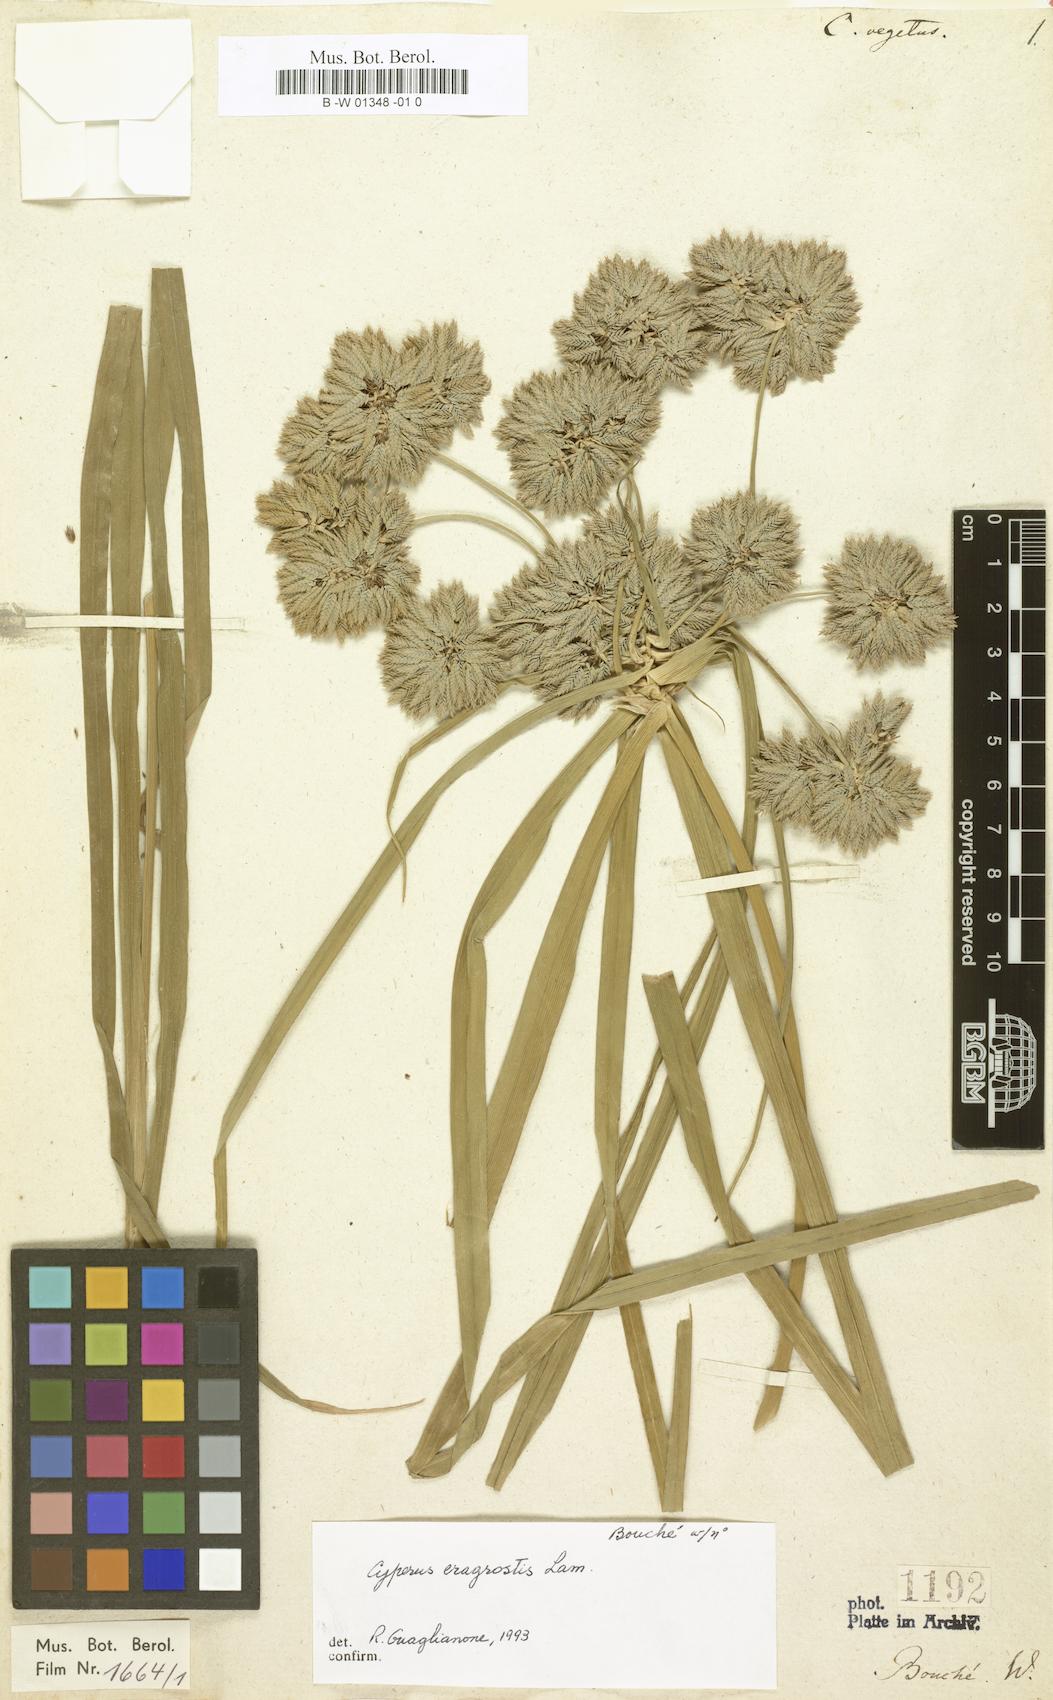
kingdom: Plantae
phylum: Tracheophyta
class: Liliopsida
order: Poales
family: Cyperaceae
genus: Cyperus
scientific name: Cyperus vegetus
